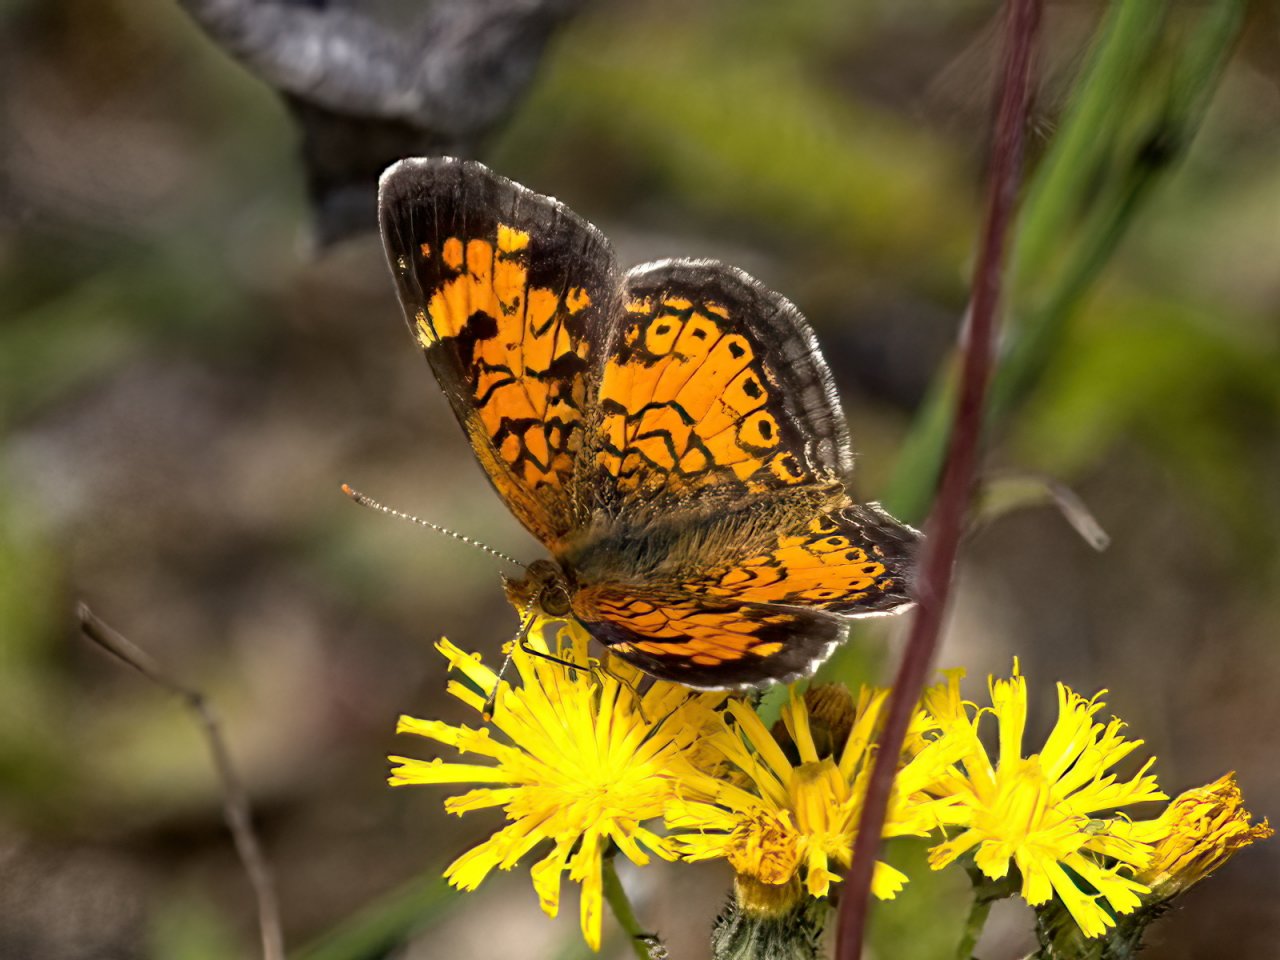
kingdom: Animalia
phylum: Arthropoda
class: Insecta
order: Lepidoptera
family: Nymphalidae
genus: Phyciodes
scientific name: Phyciodes tharos
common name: Northern Crescent
